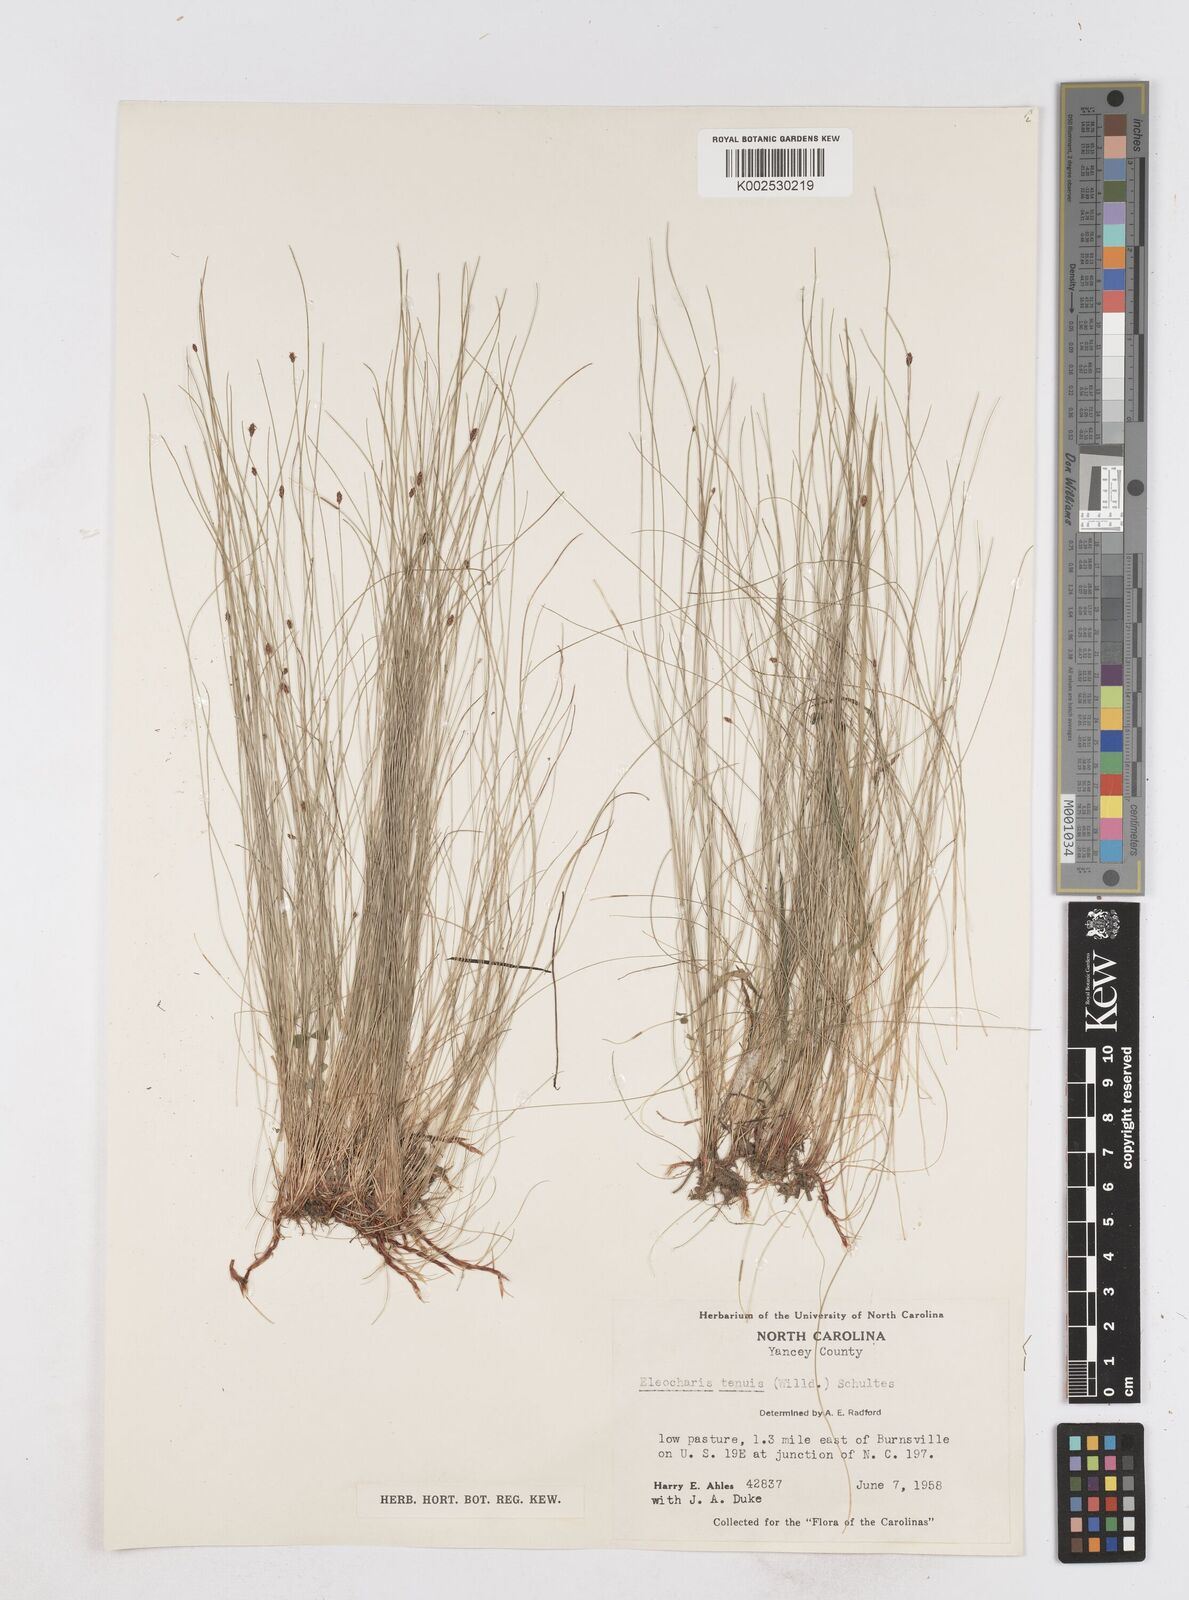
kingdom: Plantae
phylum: Tracheophyta
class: Liliopsida
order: Poales
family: Cyperaceae
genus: Eleocharis
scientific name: Eleocharis tenuis
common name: Dog's hair
